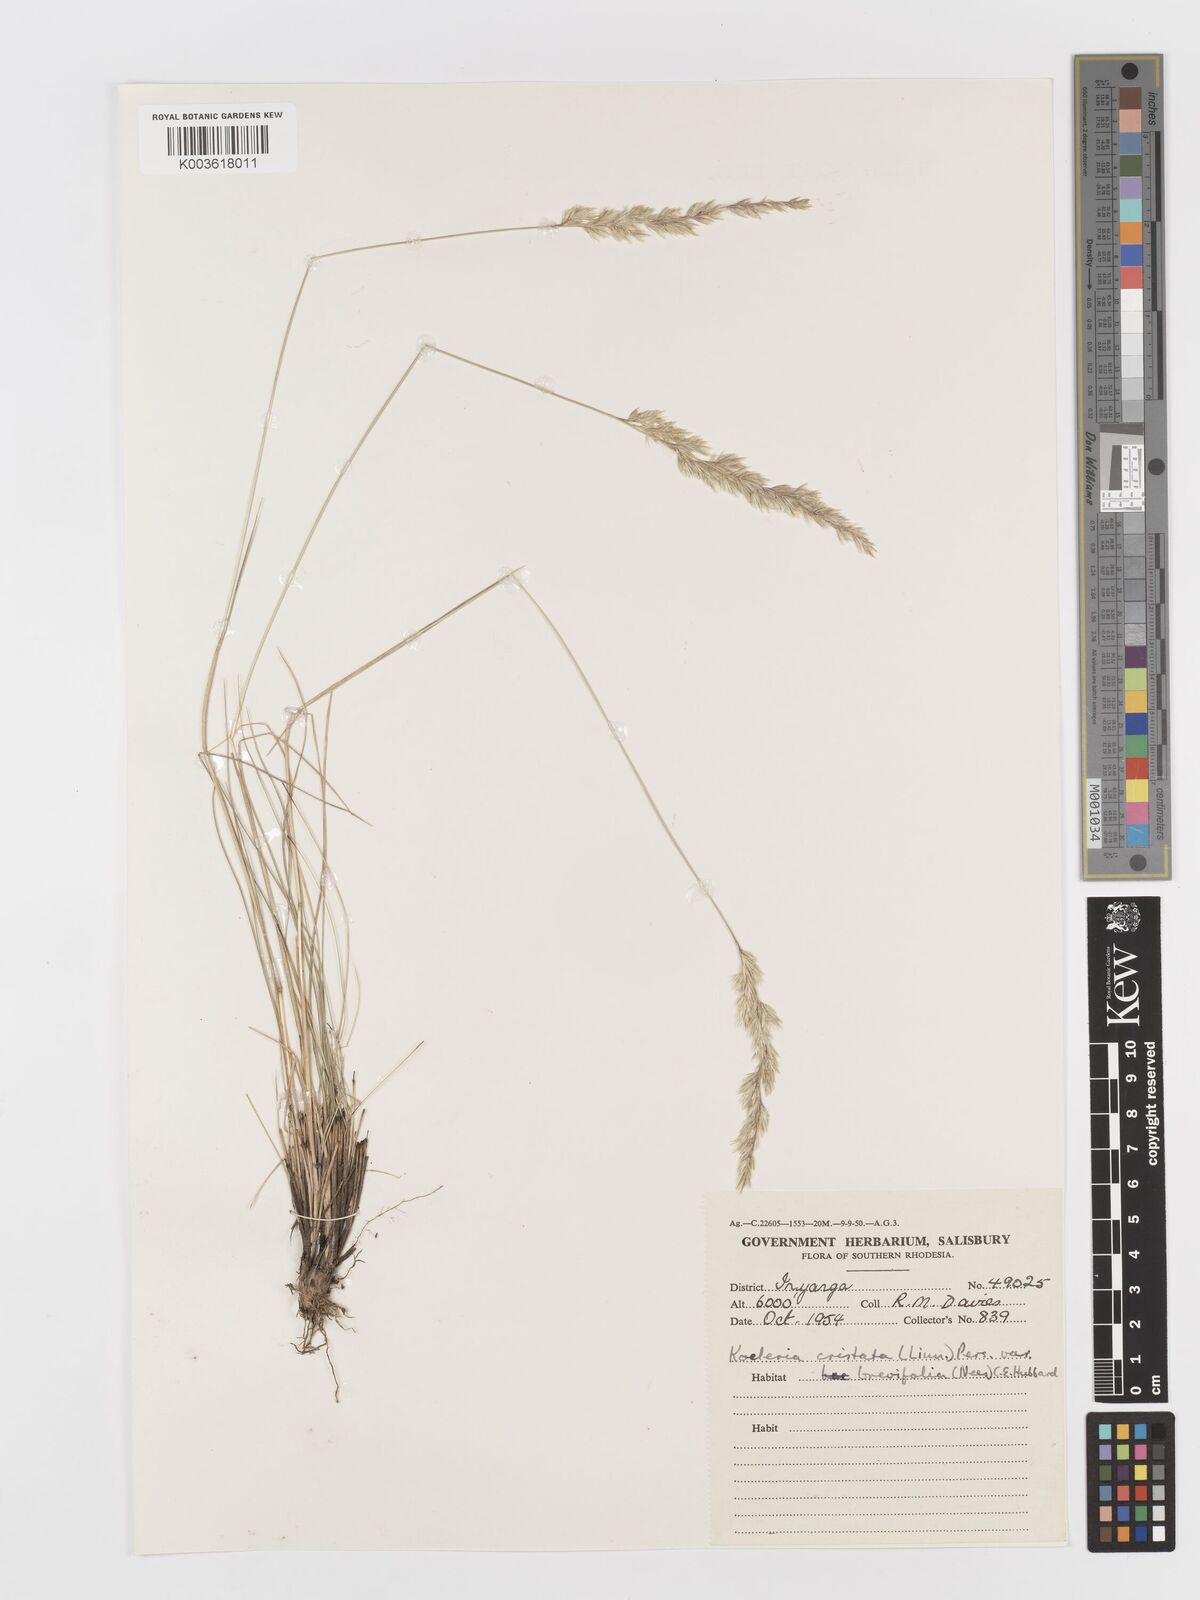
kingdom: Plantae
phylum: Tracheophyta
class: Liliopsida
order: Poales
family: Poaceae
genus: Koeleria
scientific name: Koeleria capensis
